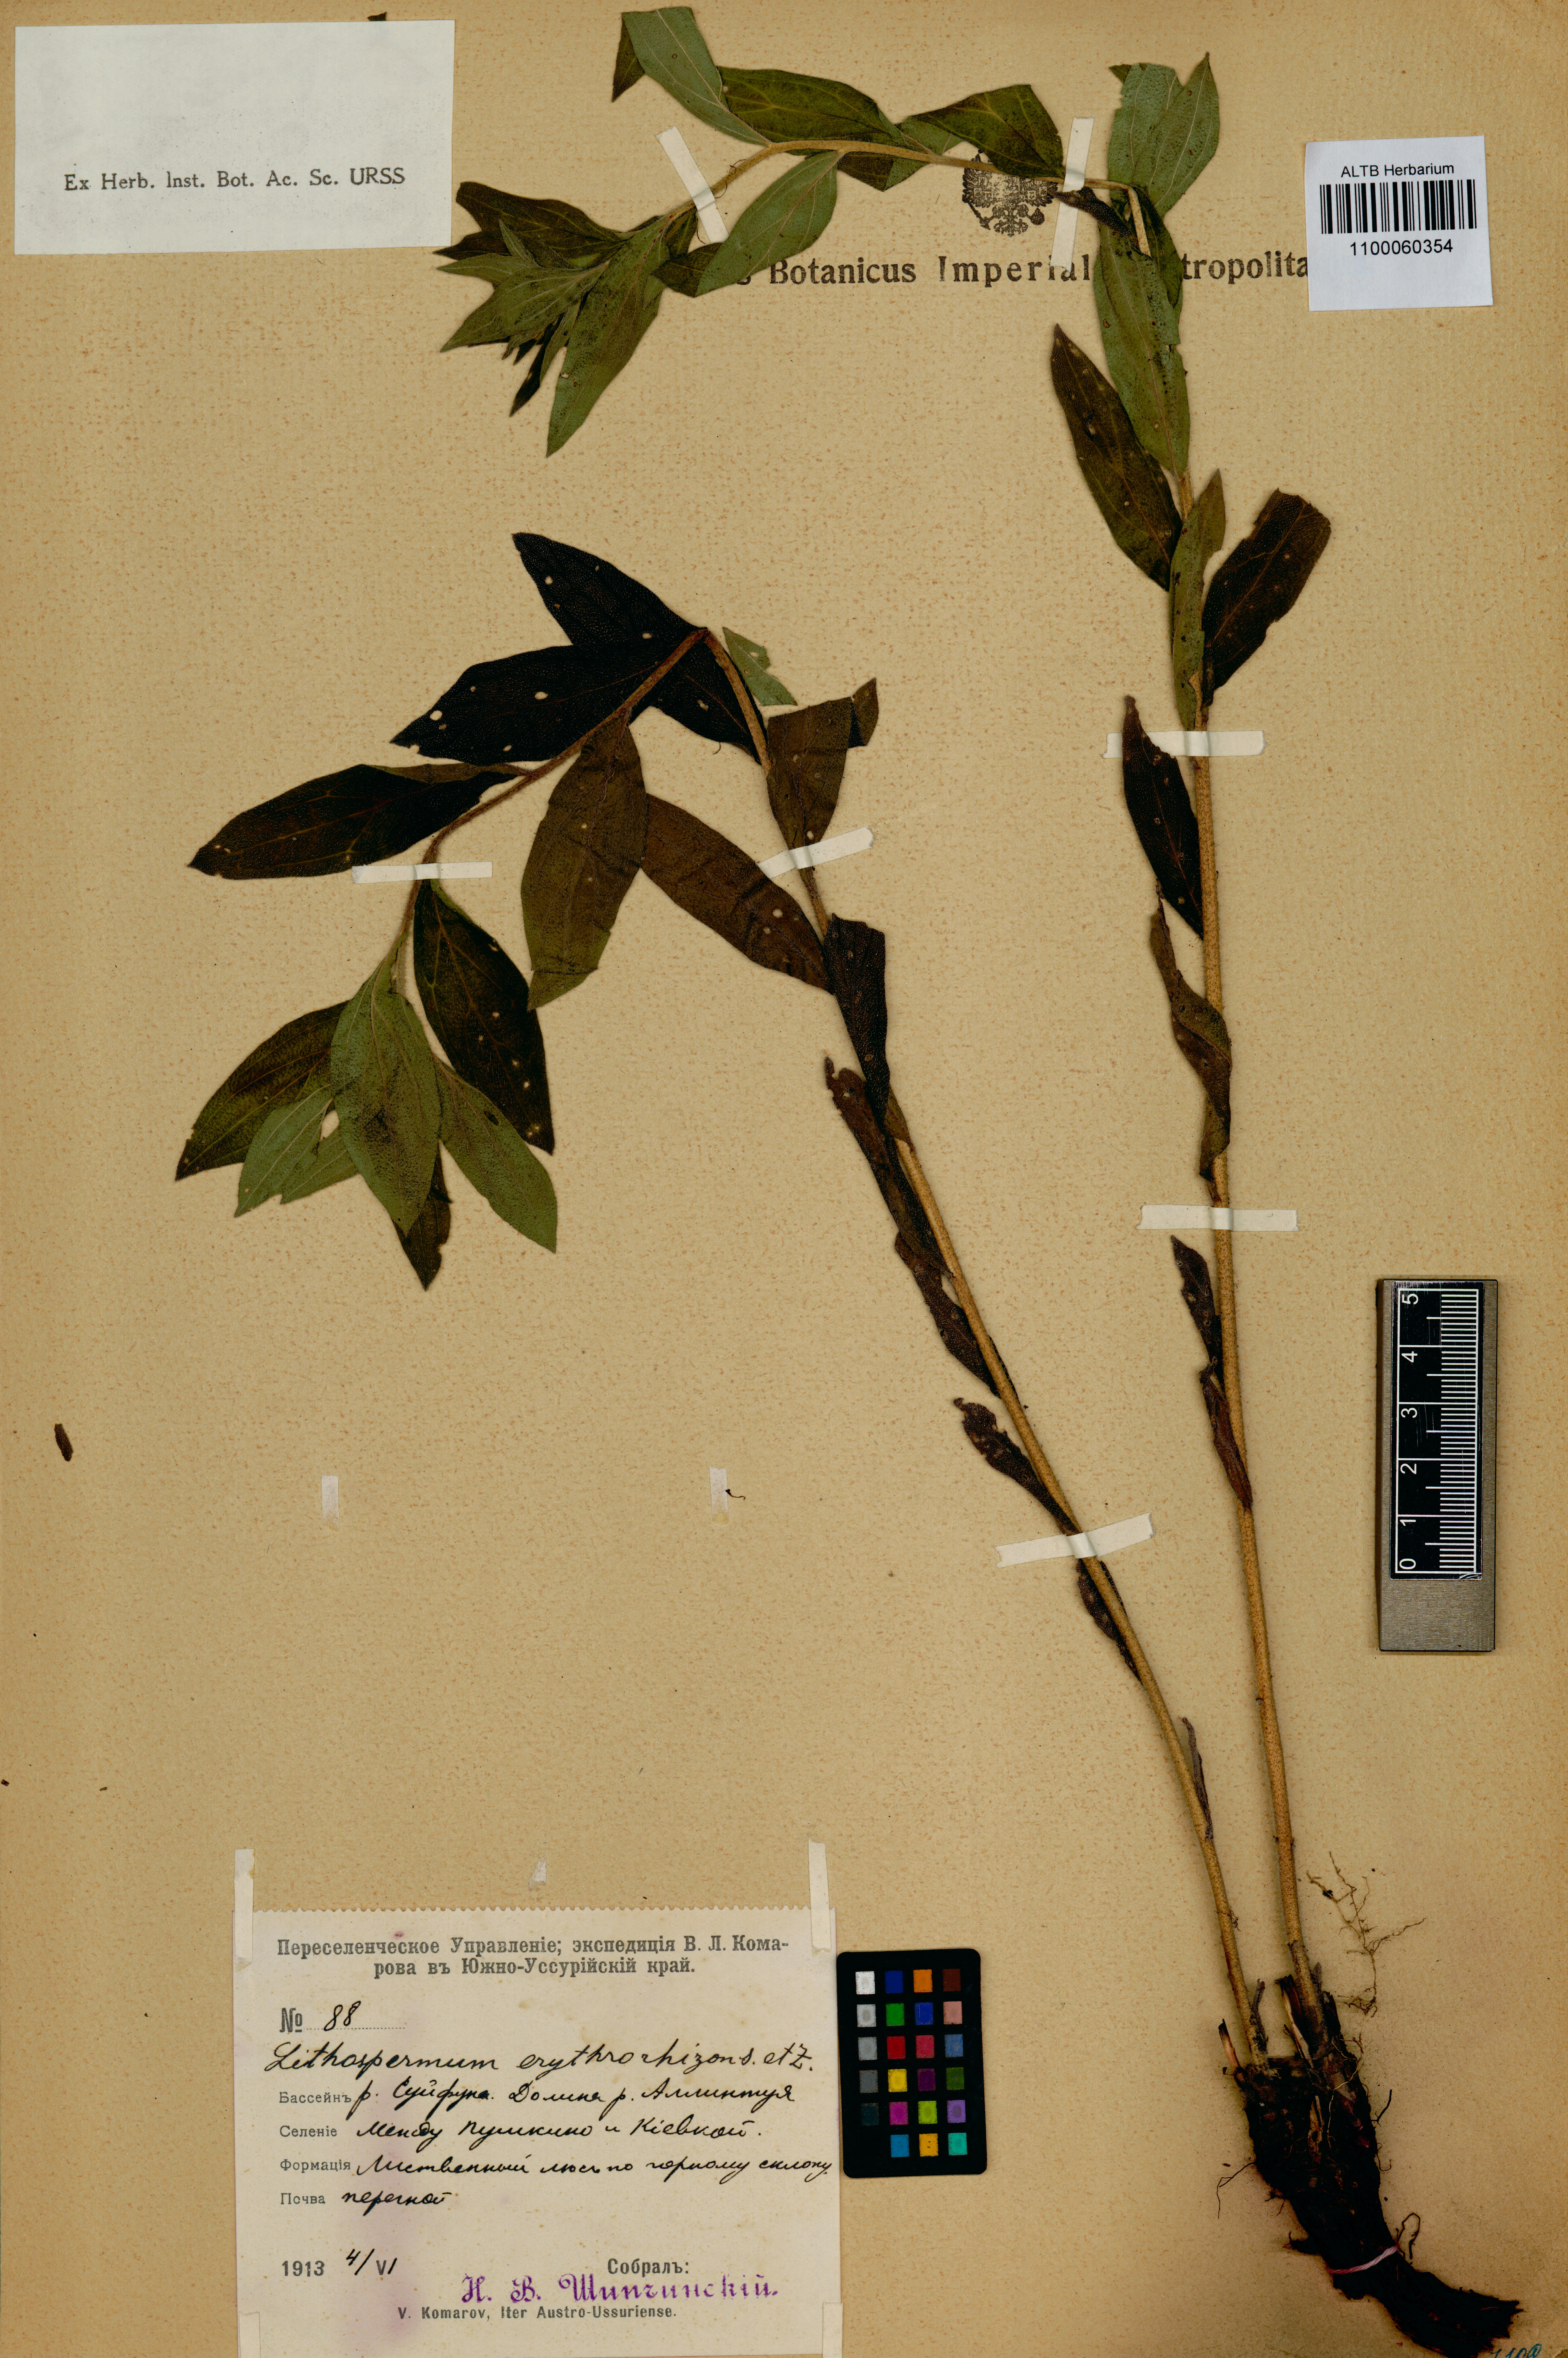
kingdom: Plantae
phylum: Tracheophyta
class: Magnoliopsida
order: Boraginales
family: Boraginaceae
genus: Lithospermum
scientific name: Lithospermum erythrorhizon
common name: Purple gromwell
